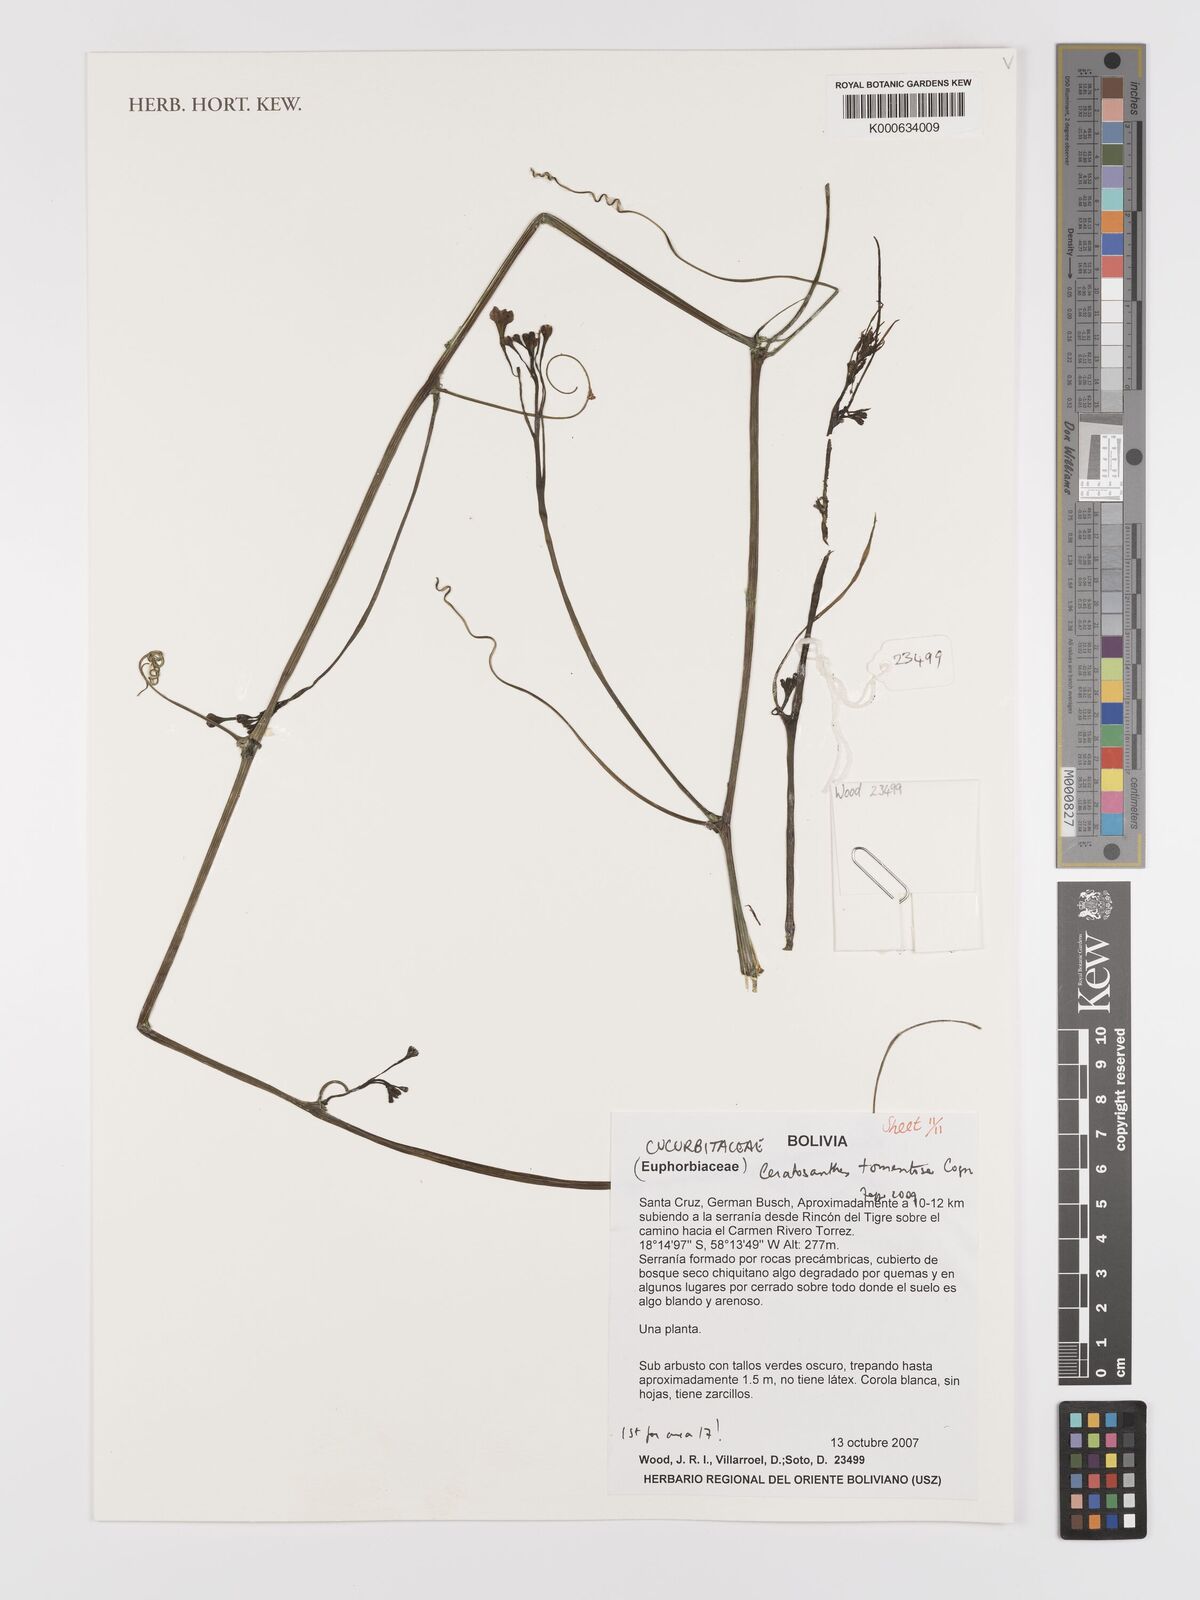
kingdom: Plantae
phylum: Tracheophyta
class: Magnoliopsida
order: Cucurbitales
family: Cucurbitaceae
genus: Ceratosanthes
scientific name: Ceratosanthes tomentosa
